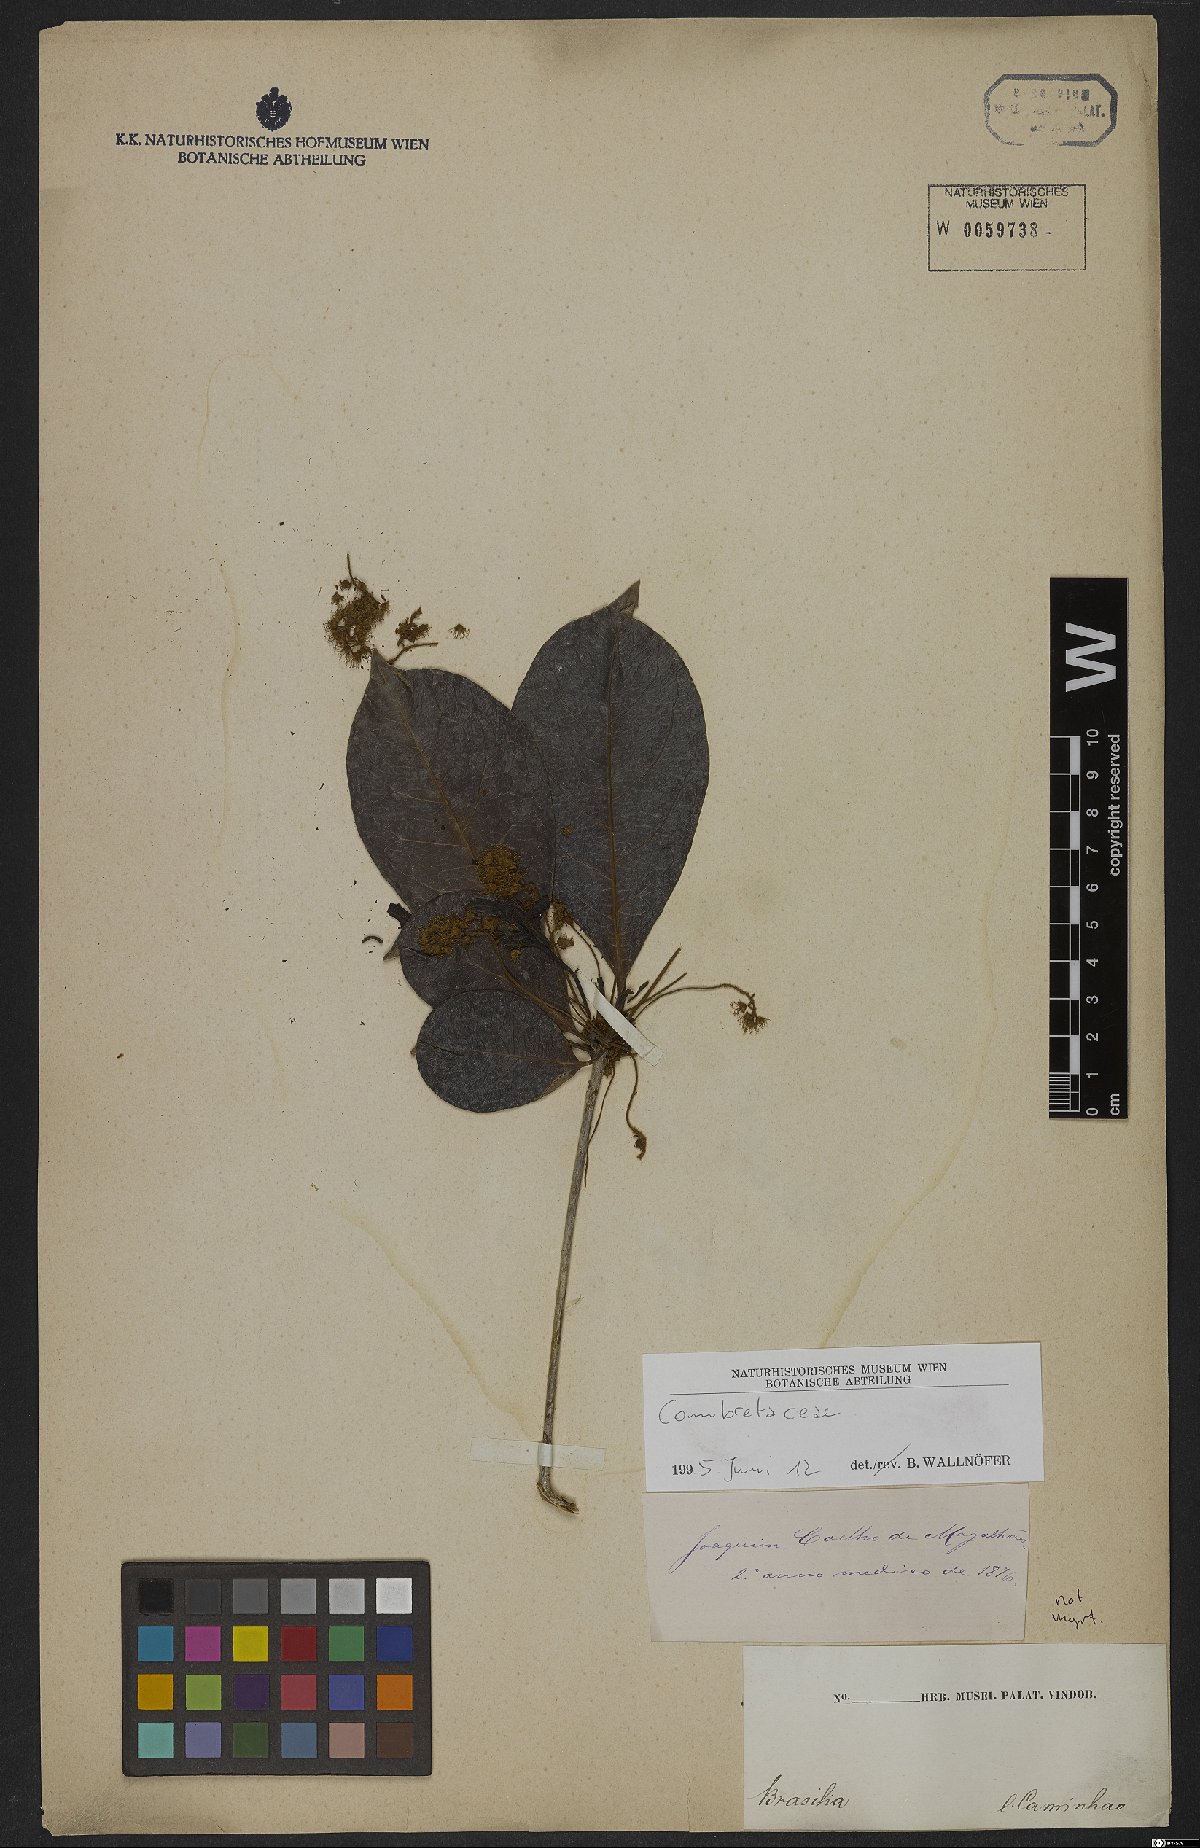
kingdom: Plantae
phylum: Tracheophyta
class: Magnoliopsida
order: Myrtales
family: Combretaceae
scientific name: Combretaceae
